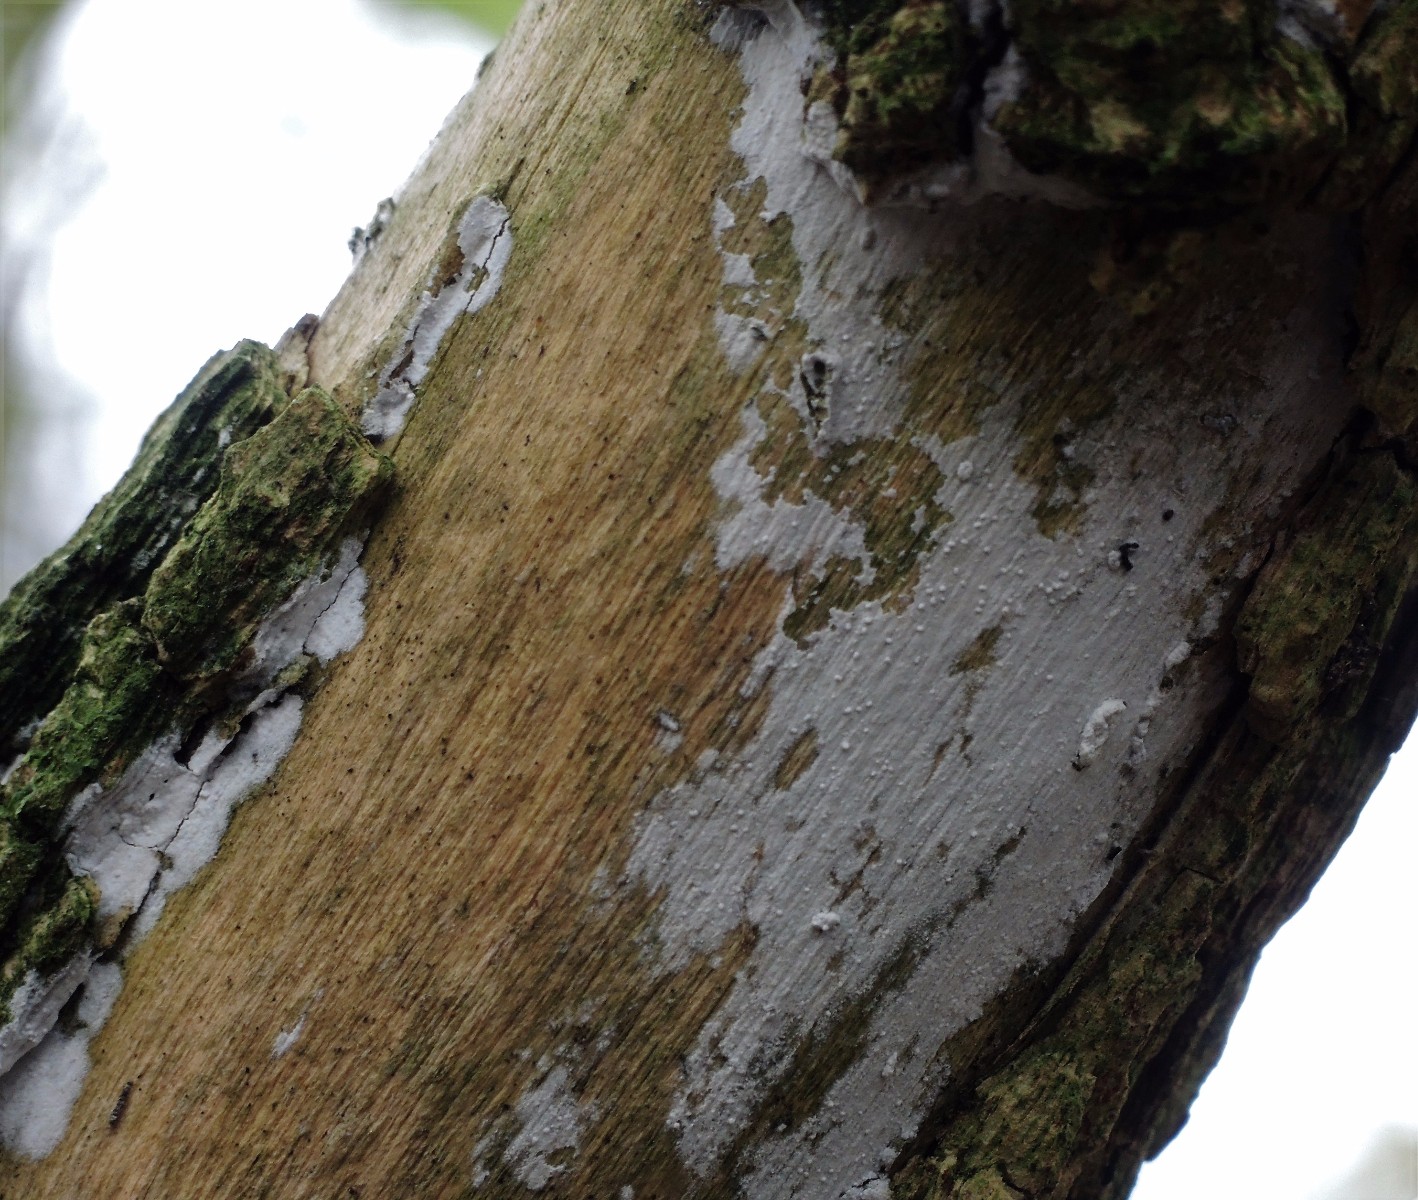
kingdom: Fungi
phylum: Basidiomycota
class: Agaricomycetes
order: Corticiales
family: Corticiaceae
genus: Lyomyces
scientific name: Lyomyces sambuci
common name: almindelig hyldehinde
